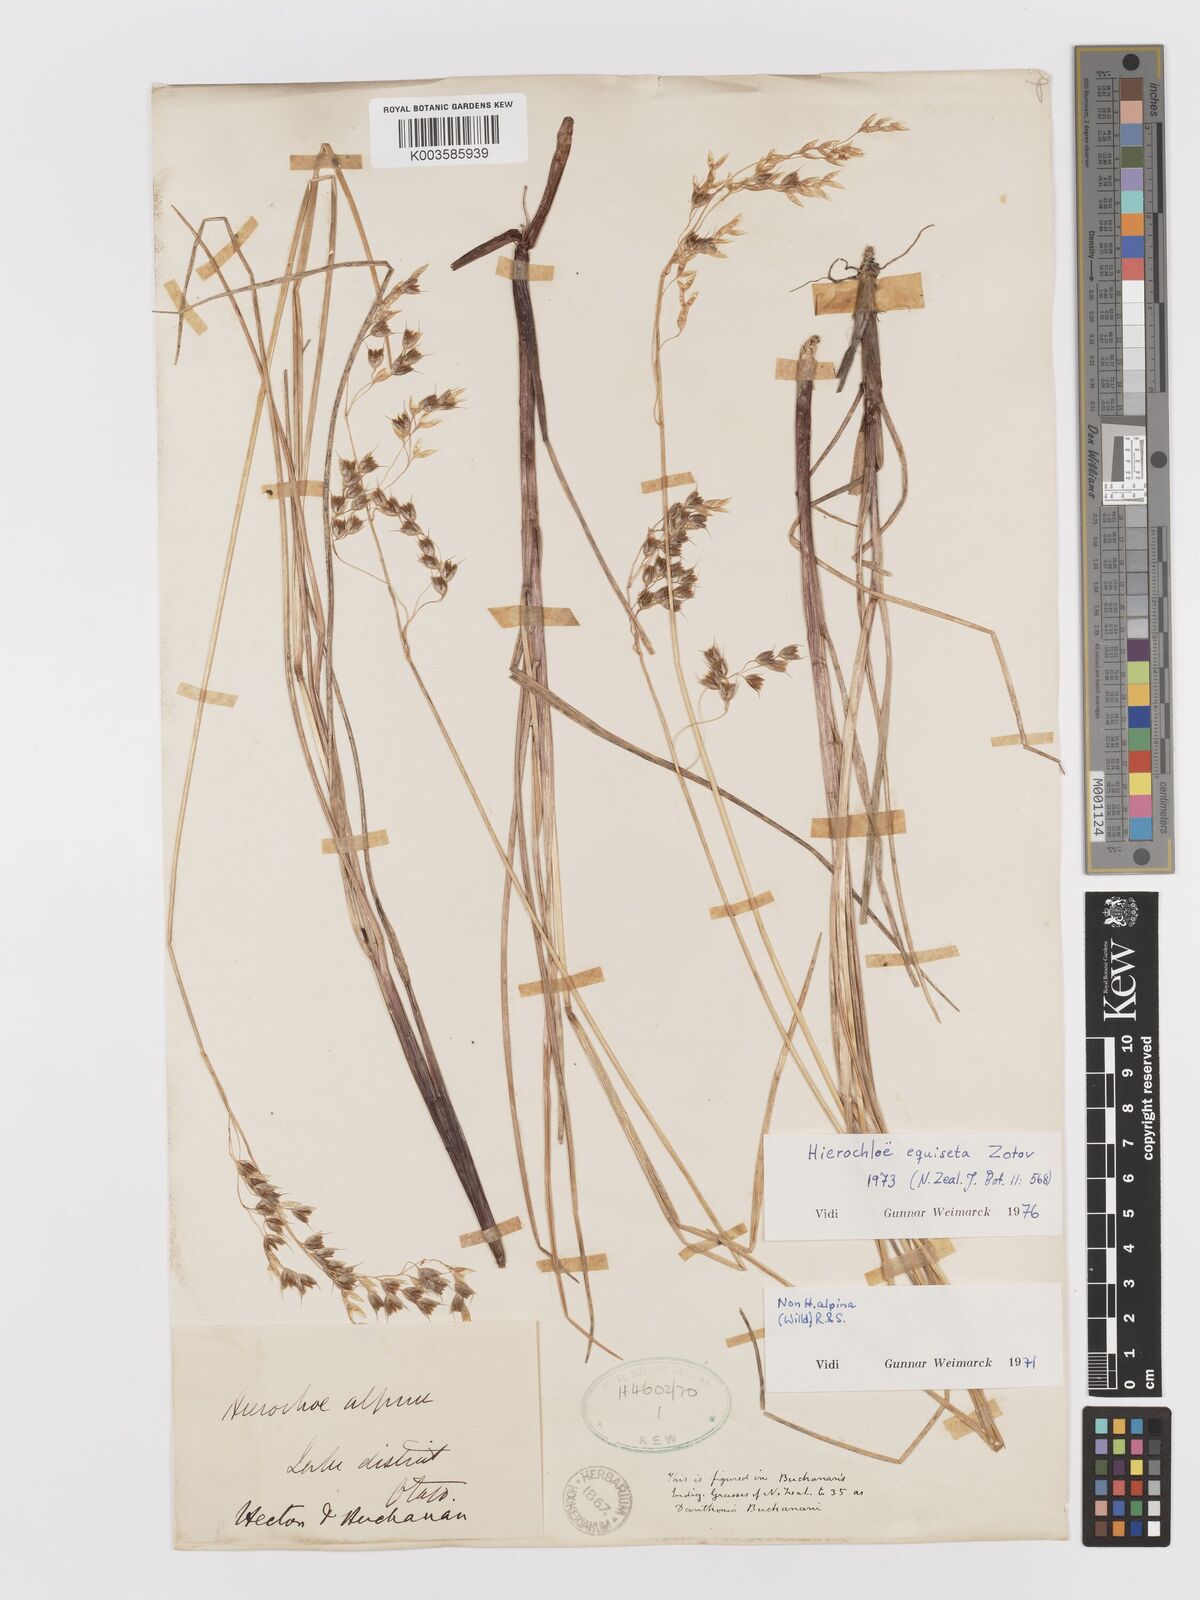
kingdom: Plantae
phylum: Tracheophyta
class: Liliopsida
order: Poales
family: Poaceae
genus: Anthoxanthum
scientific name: Anthoxanthum equisetum
